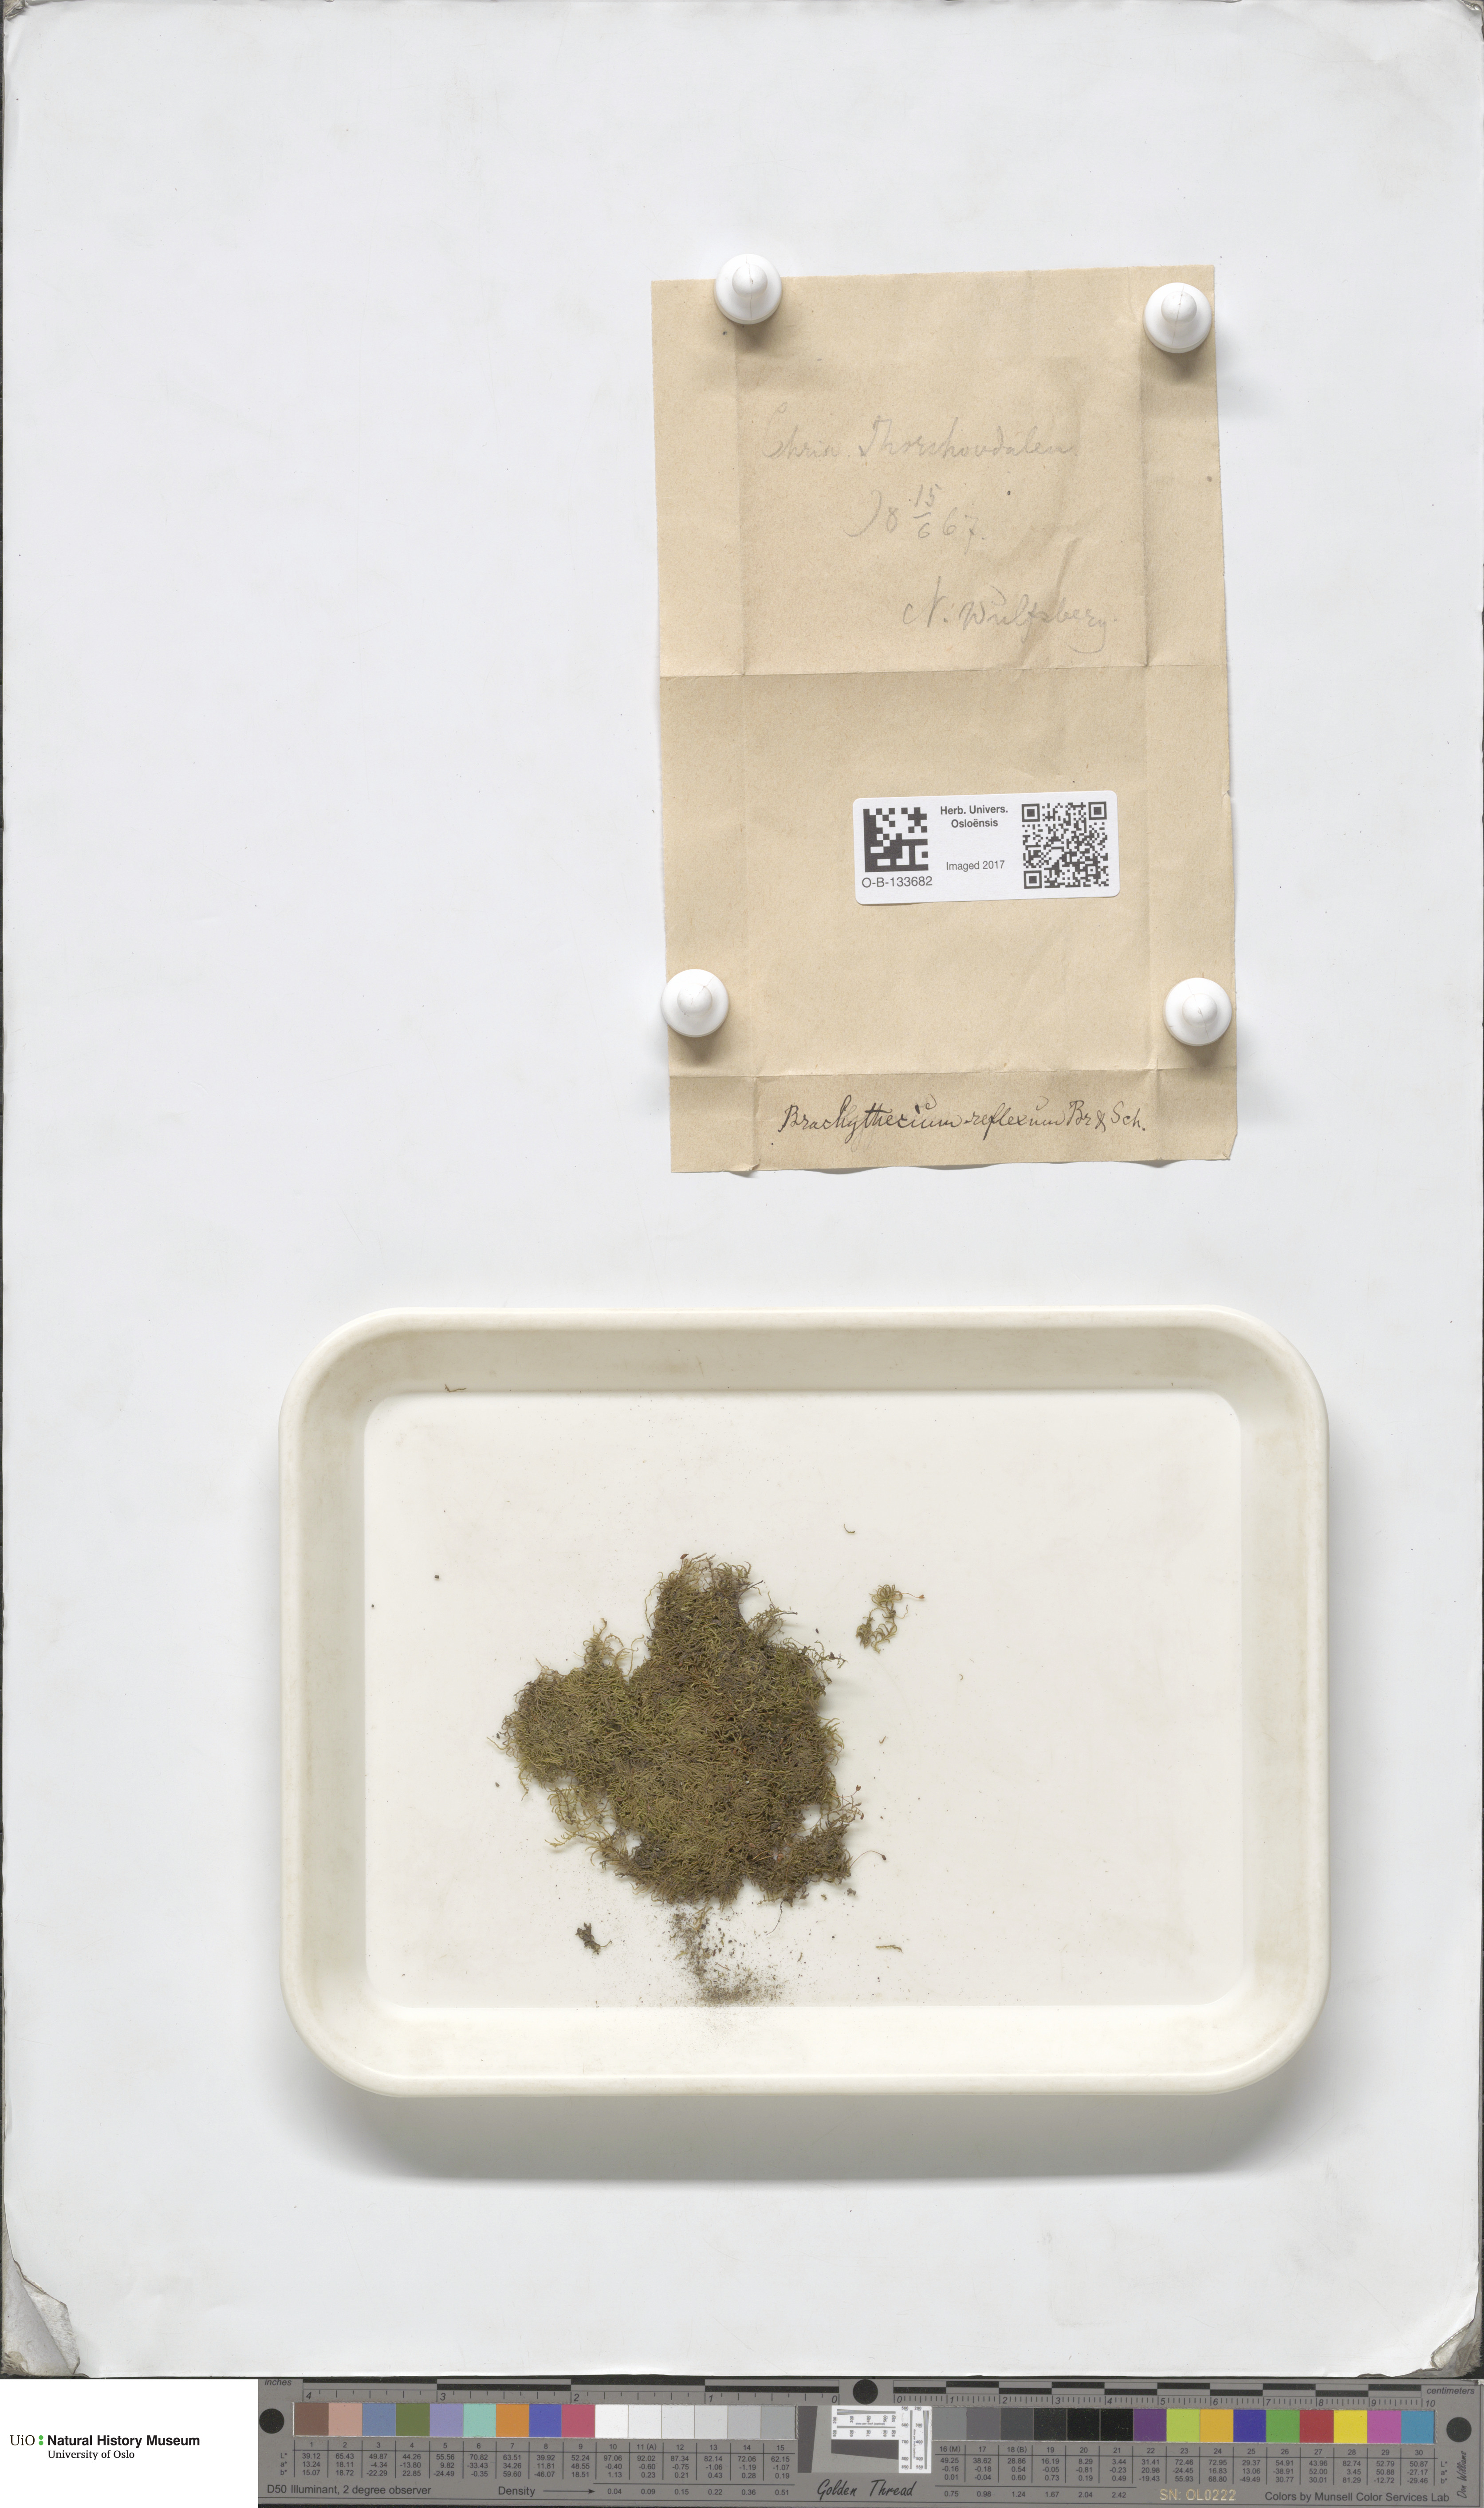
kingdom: Plantae
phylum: Bryophyta
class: Bryopsida
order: Hypnales
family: Brachytheciaceae
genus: Sciuro-hypnum
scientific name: Sciuro-hypnum reflexum
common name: Reflexed feather-moss
